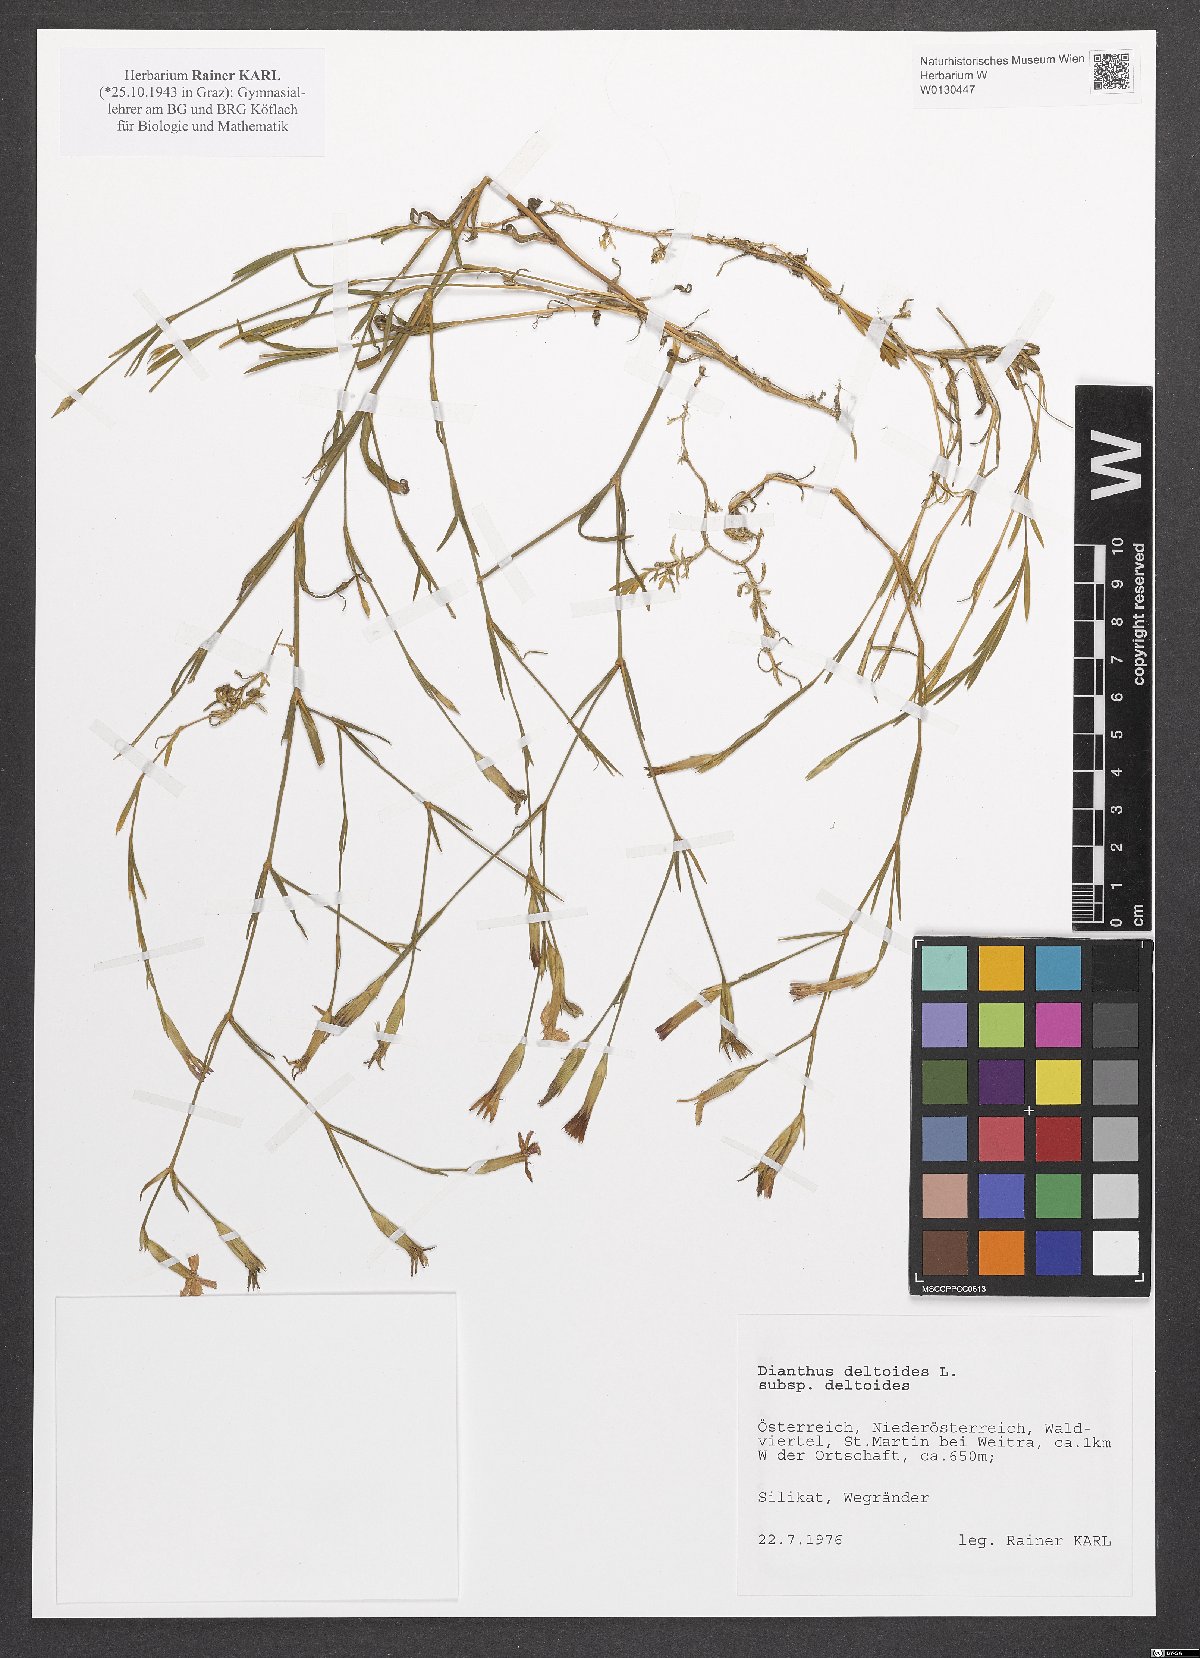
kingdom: Plantae
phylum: Tracheophyta
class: Magnoliopsida
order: Caryophyllales
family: Caryophyllaceae
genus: Dianthus
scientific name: Dianthus deltoides
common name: Maiden pink
